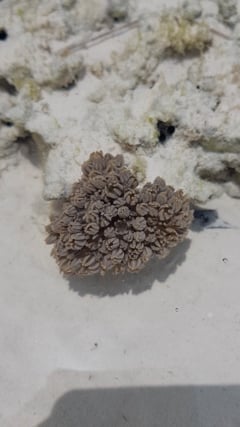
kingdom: Animalia
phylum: Cnidaria
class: Anthozoa
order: Malacalcyonacea
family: Xeniidae
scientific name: Xeniidae
